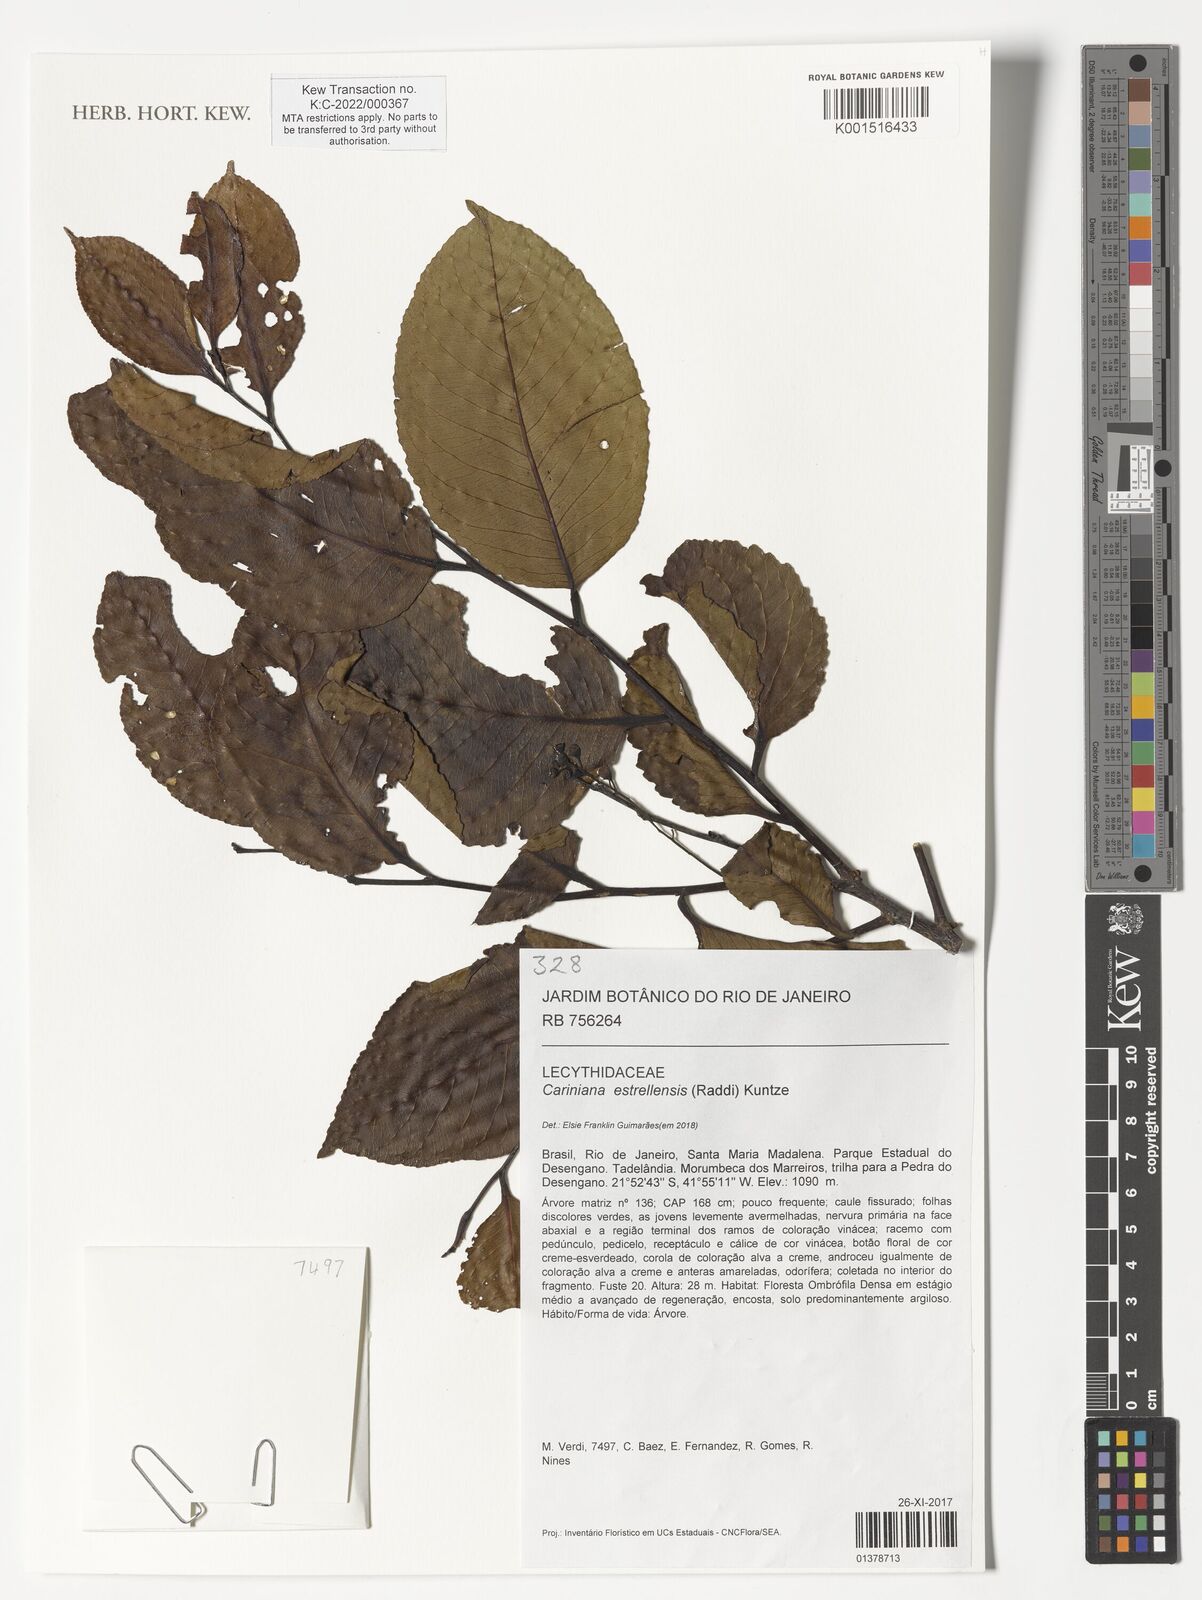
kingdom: Plantae
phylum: Tracheophyta
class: Magnoliopsida
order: Ericales
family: Lecythidaceae
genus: Cariniana
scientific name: Cariniana estrellensis
